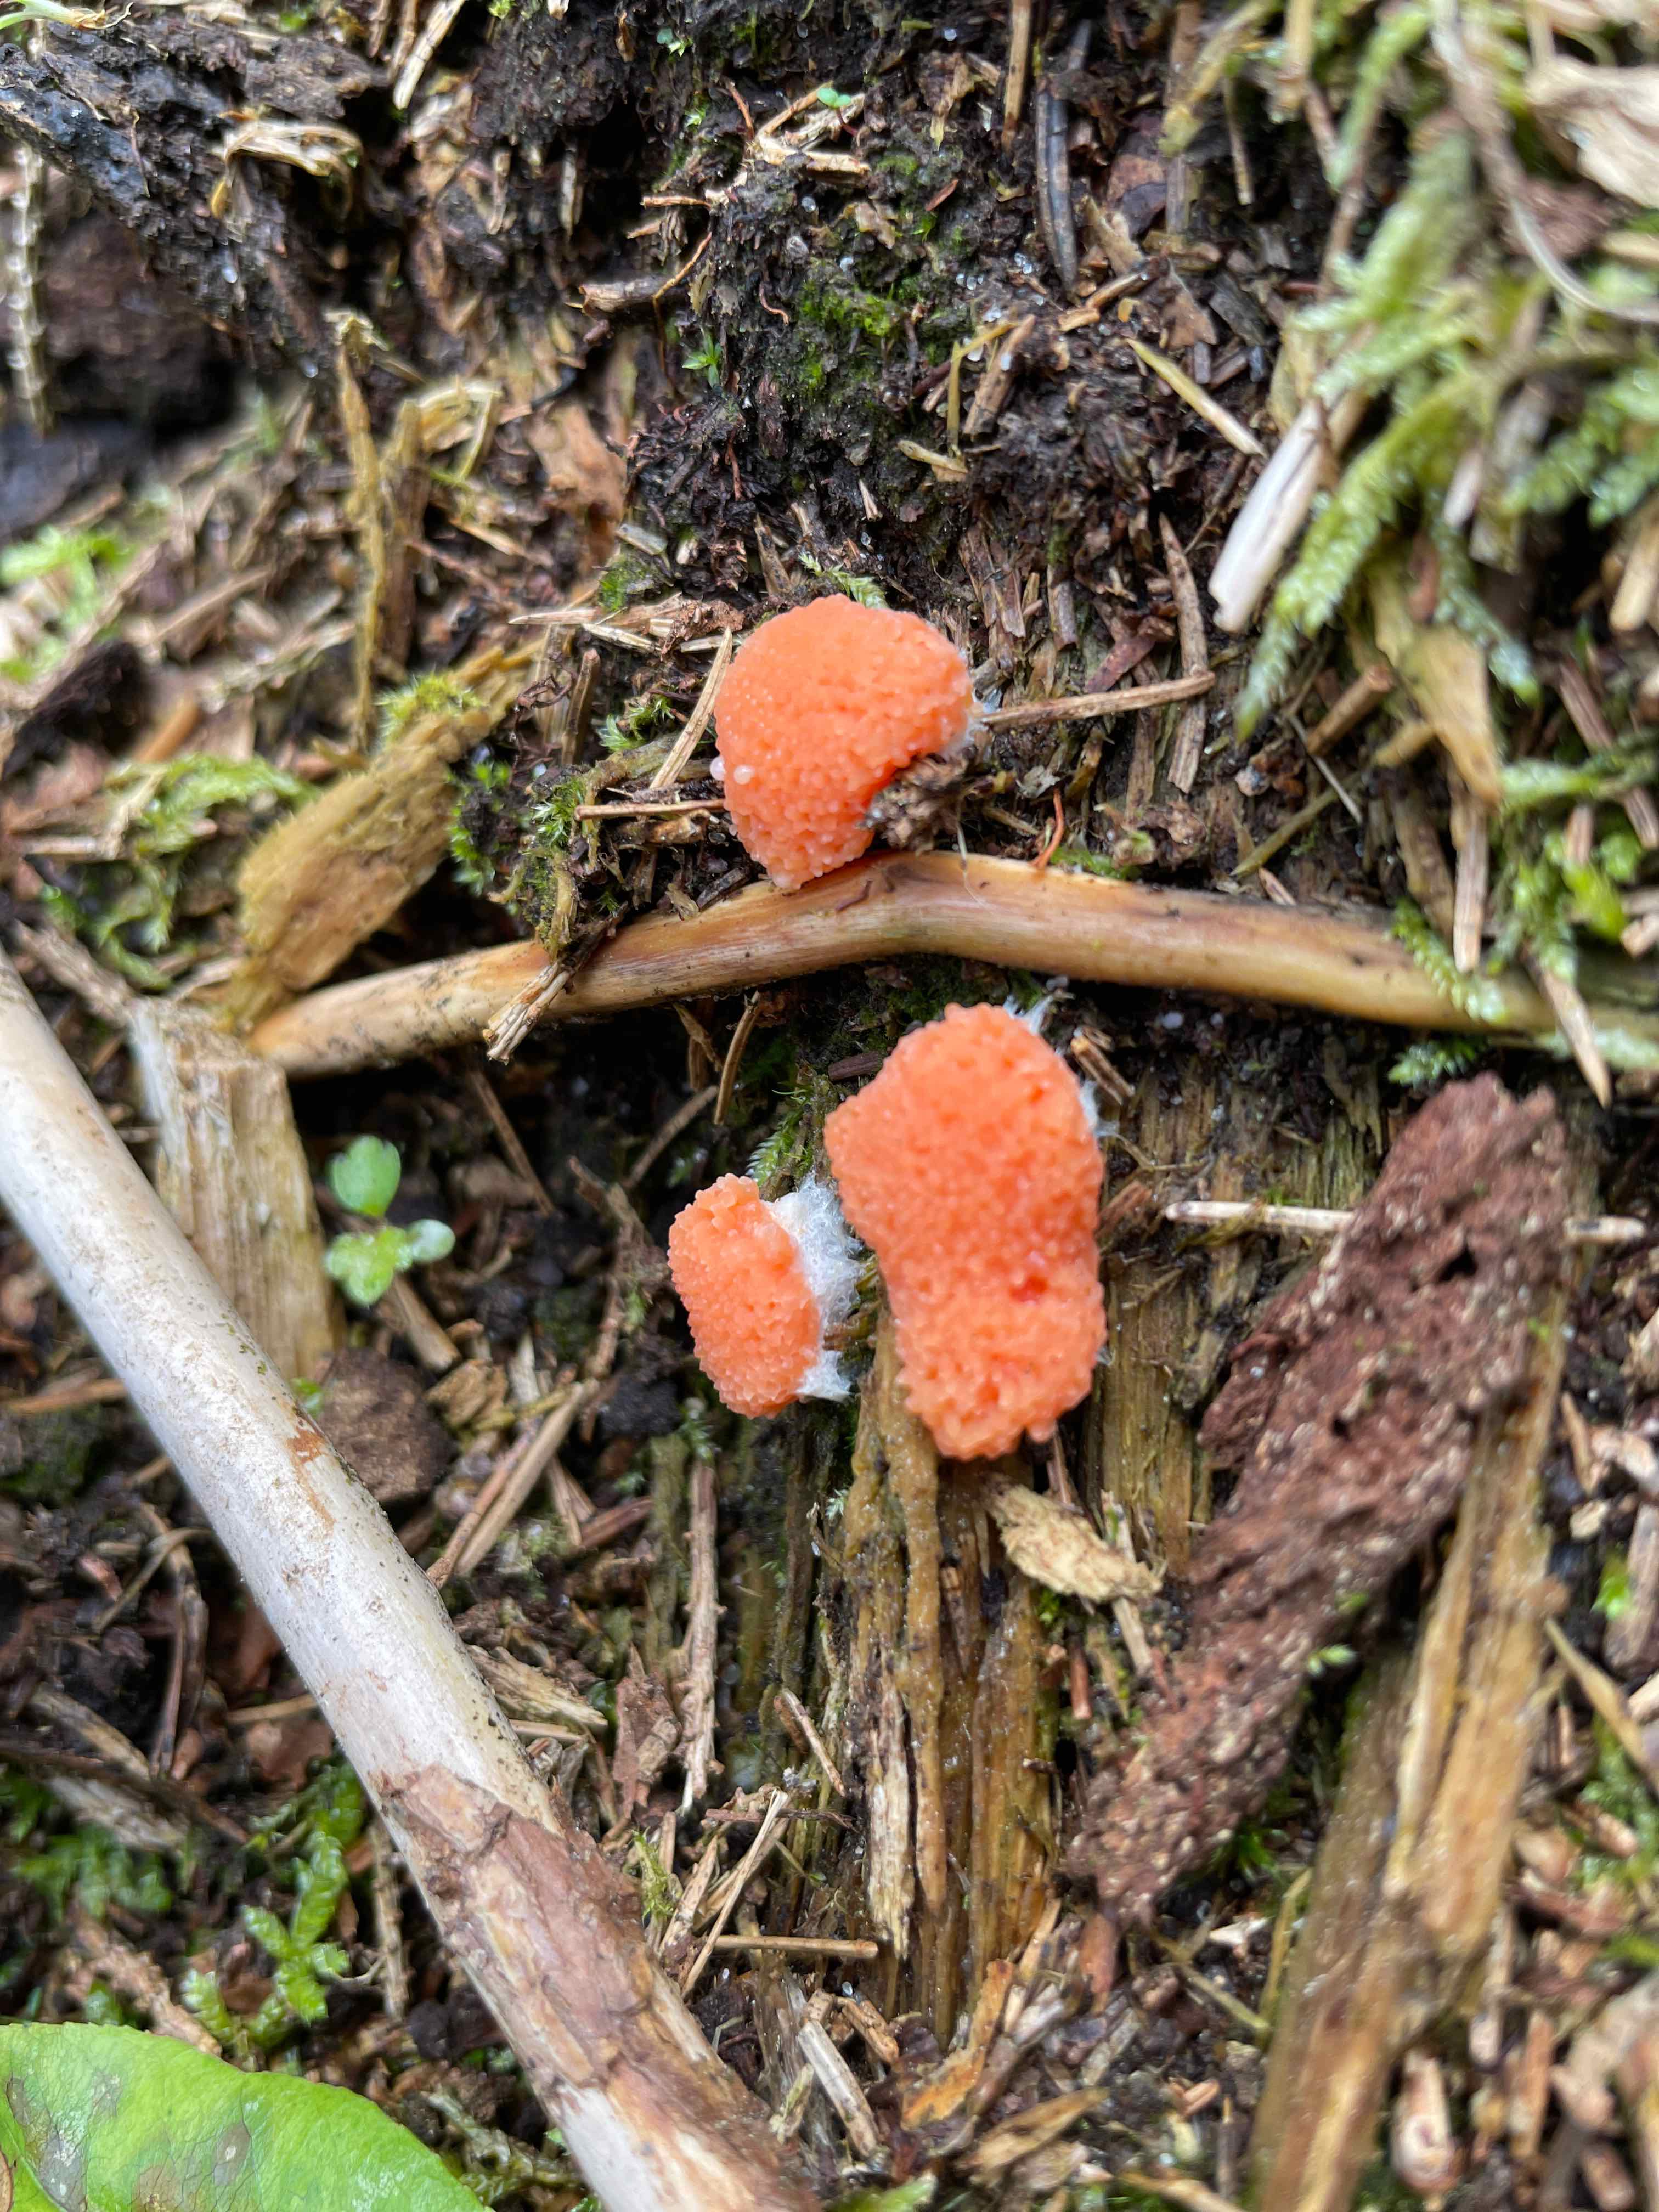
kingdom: Protozoa
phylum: Mycetozoa
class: Myxomycetes
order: Cribrariales
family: Tubiferaceae
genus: Tubifera
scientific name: Tubifera ferruginosa
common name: kanel-støvrør
